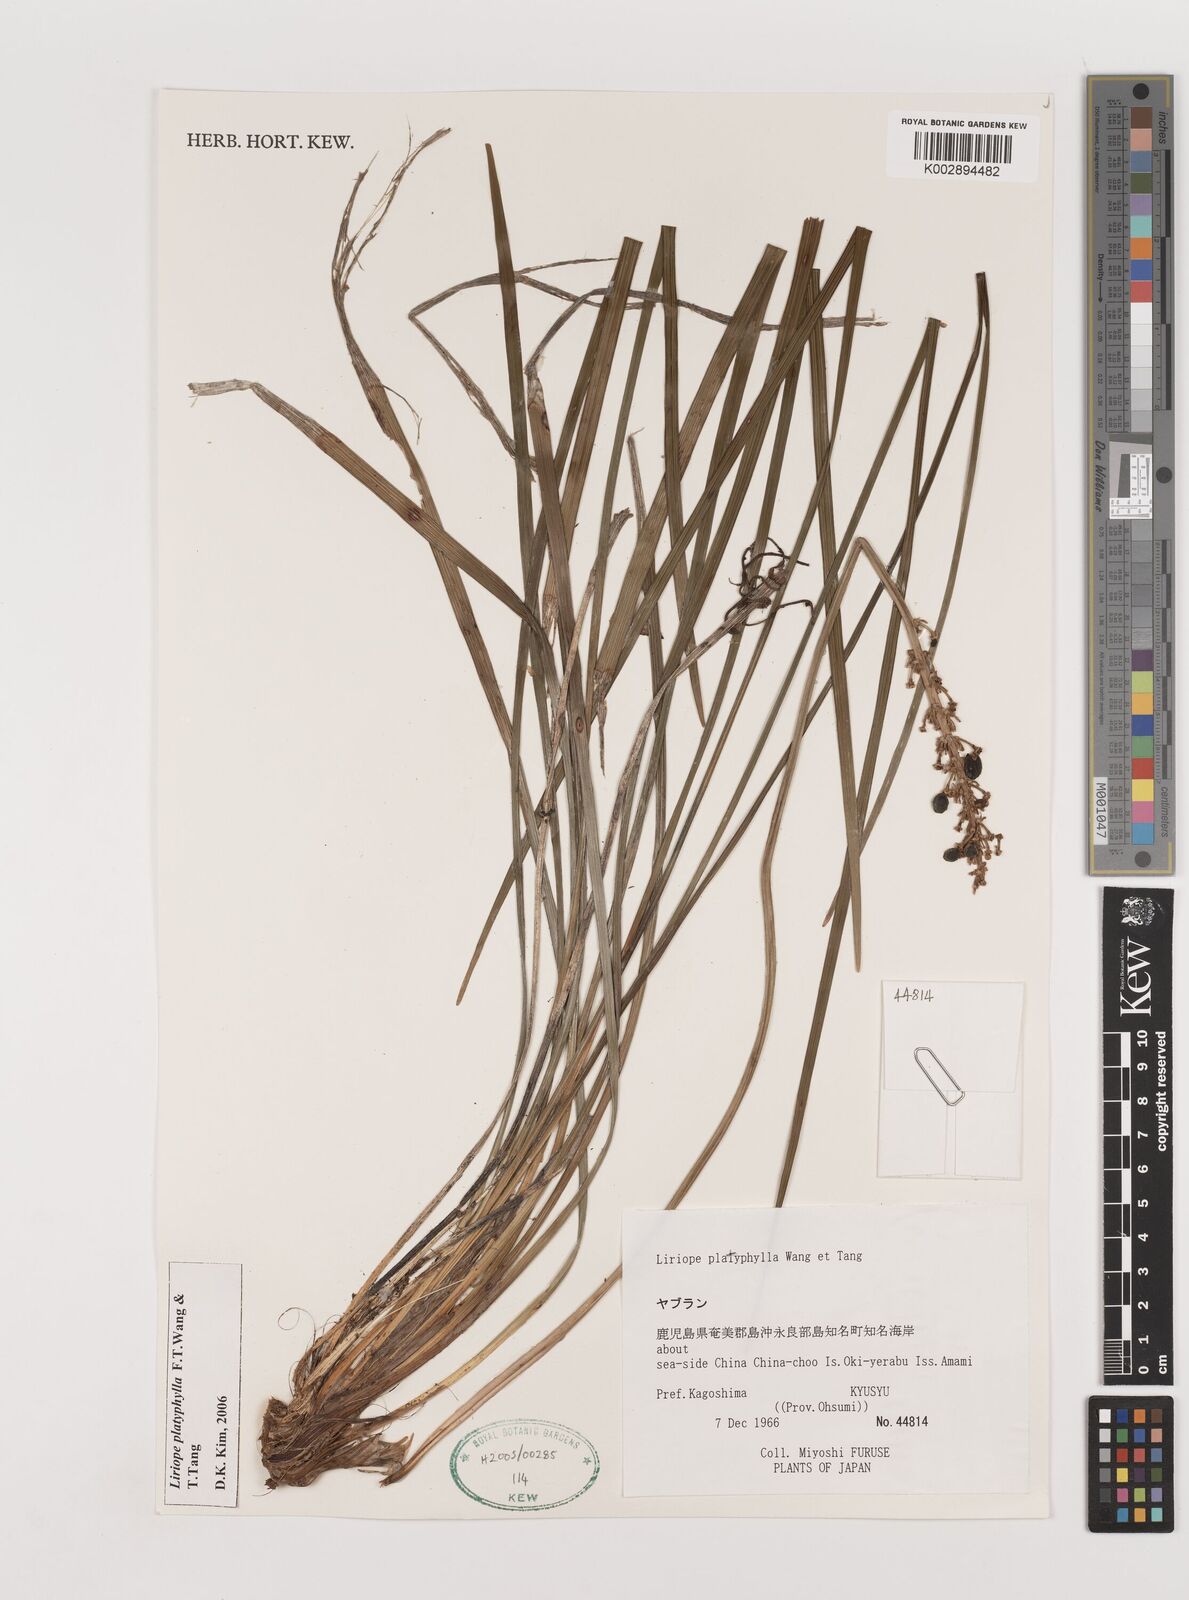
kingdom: Plantae
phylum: Tracheophyta
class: Liliopsida
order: Asparagales
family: Asparagaceae
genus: Liriope
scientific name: Liriope muscari
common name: Big blue lilyturf
